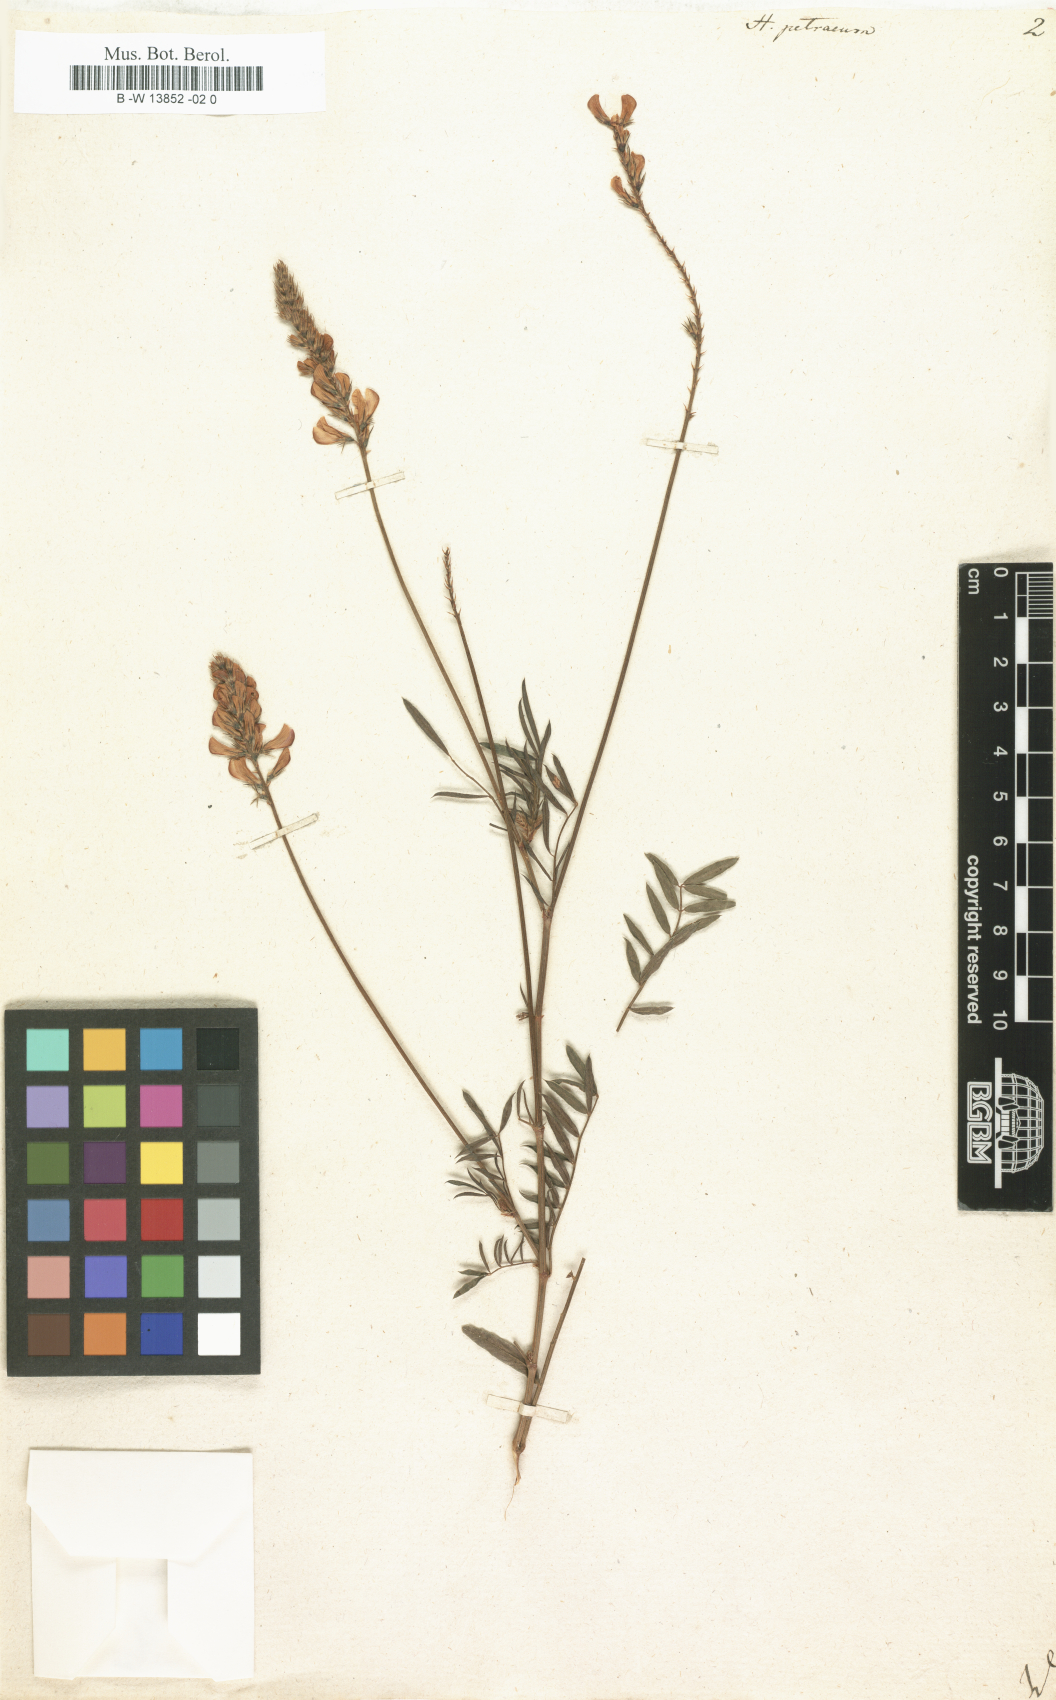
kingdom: Plantae
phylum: Tracheophyta
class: Magnoliopsida
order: Fabales
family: Fabaceae
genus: Onobrychis
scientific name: Onobrychis petraea
